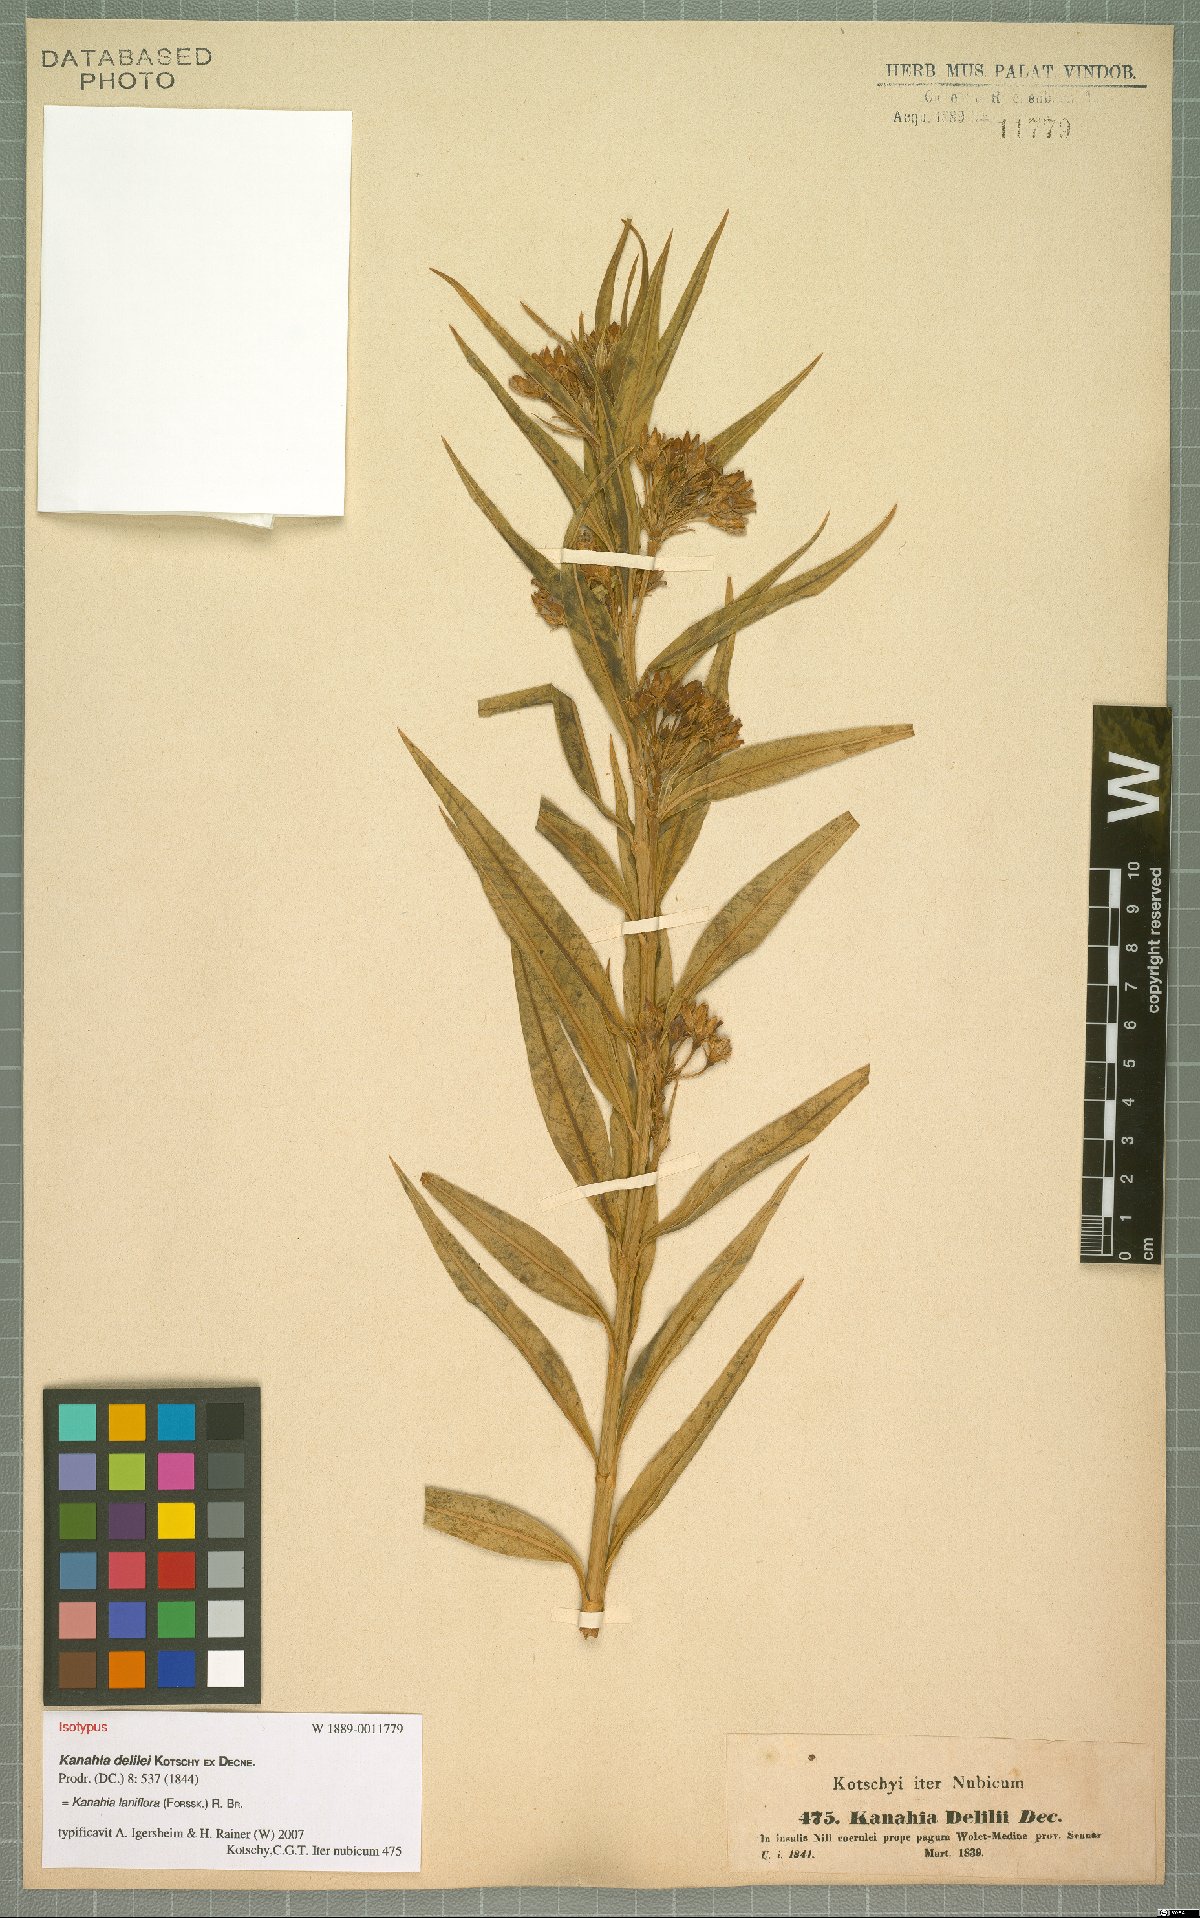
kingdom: Plantae
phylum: Tracheophyta
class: Magnoliopsida
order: Gentianales
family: Apocynaceae
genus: Kanahia
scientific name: Kanahia laniflora
